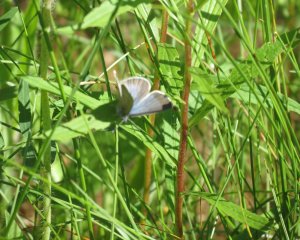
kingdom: Animalia
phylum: Arthropoda
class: Insecta
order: Lepidoptera
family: Lycaenidae
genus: Glaucopsyche
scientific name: Glaucopsyche lygdamus
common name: Silvery Blue
